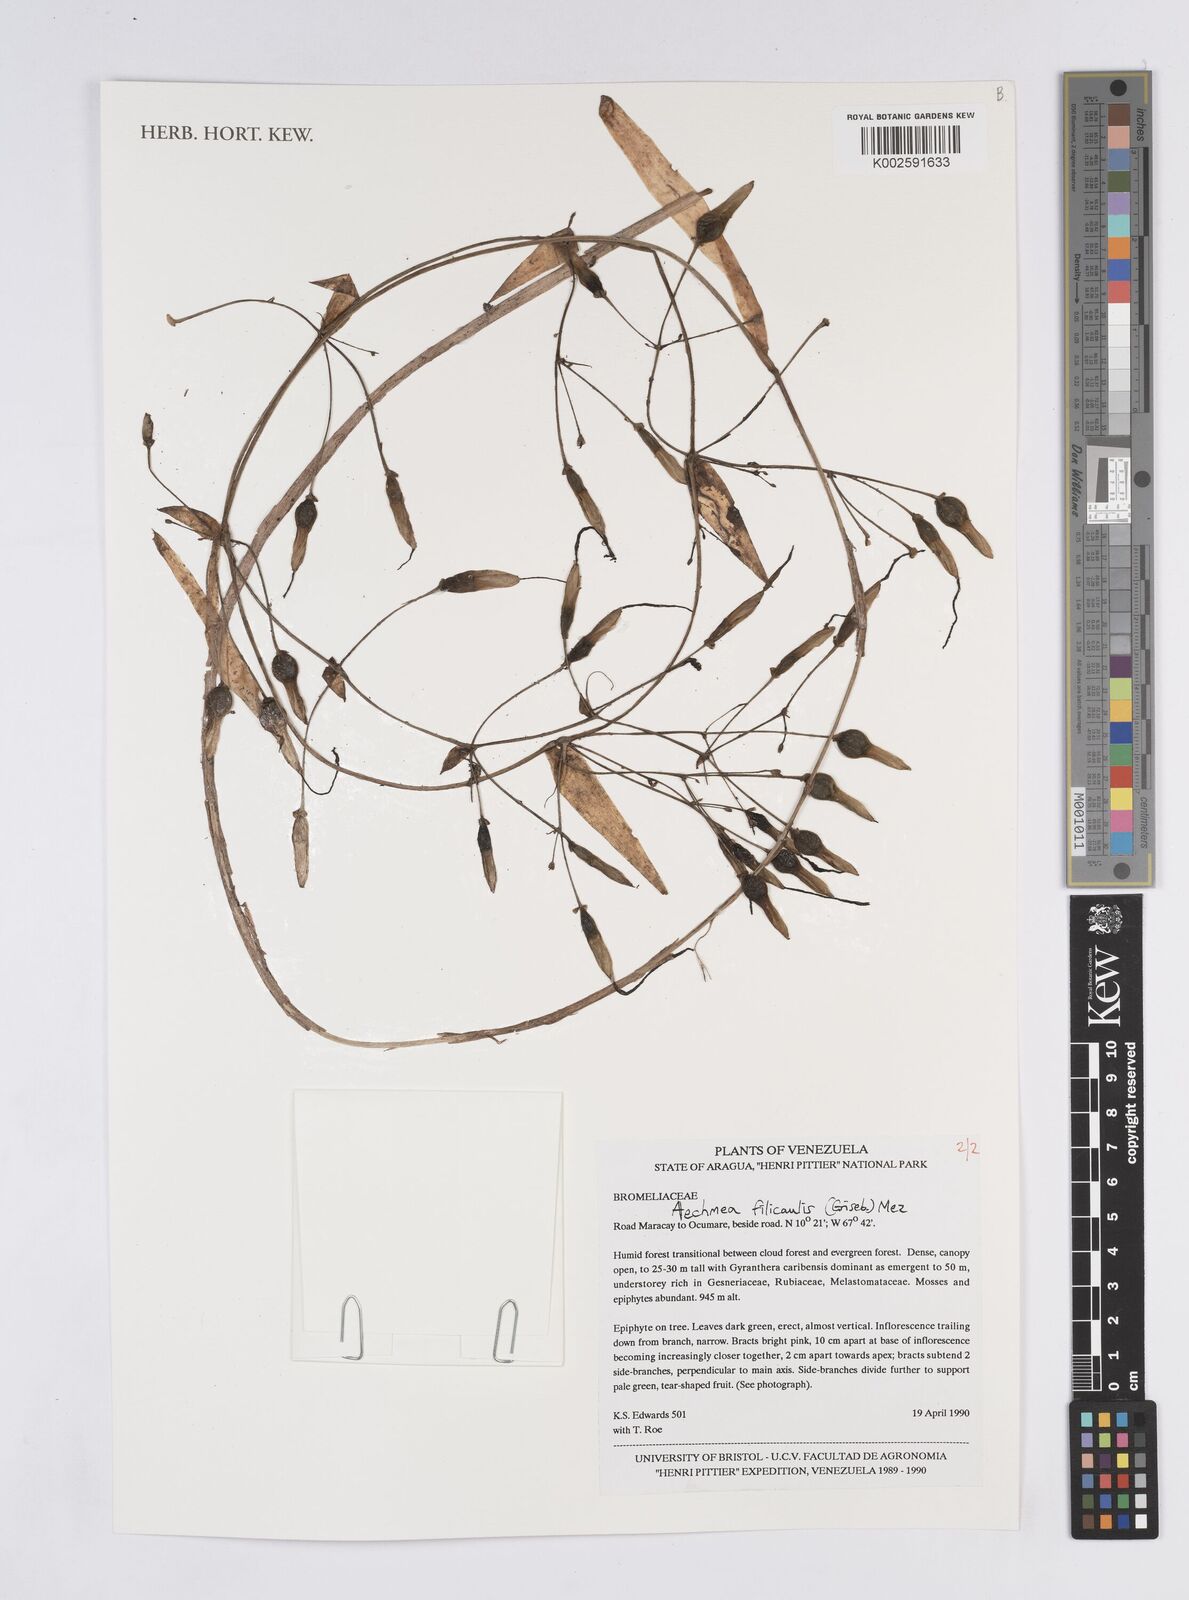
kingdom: Plantae
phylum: Tracheophyta
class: Liliopsida
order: Poales
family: Bromeliaceae
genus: Aechmea
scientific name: Aechmea filicaulis
